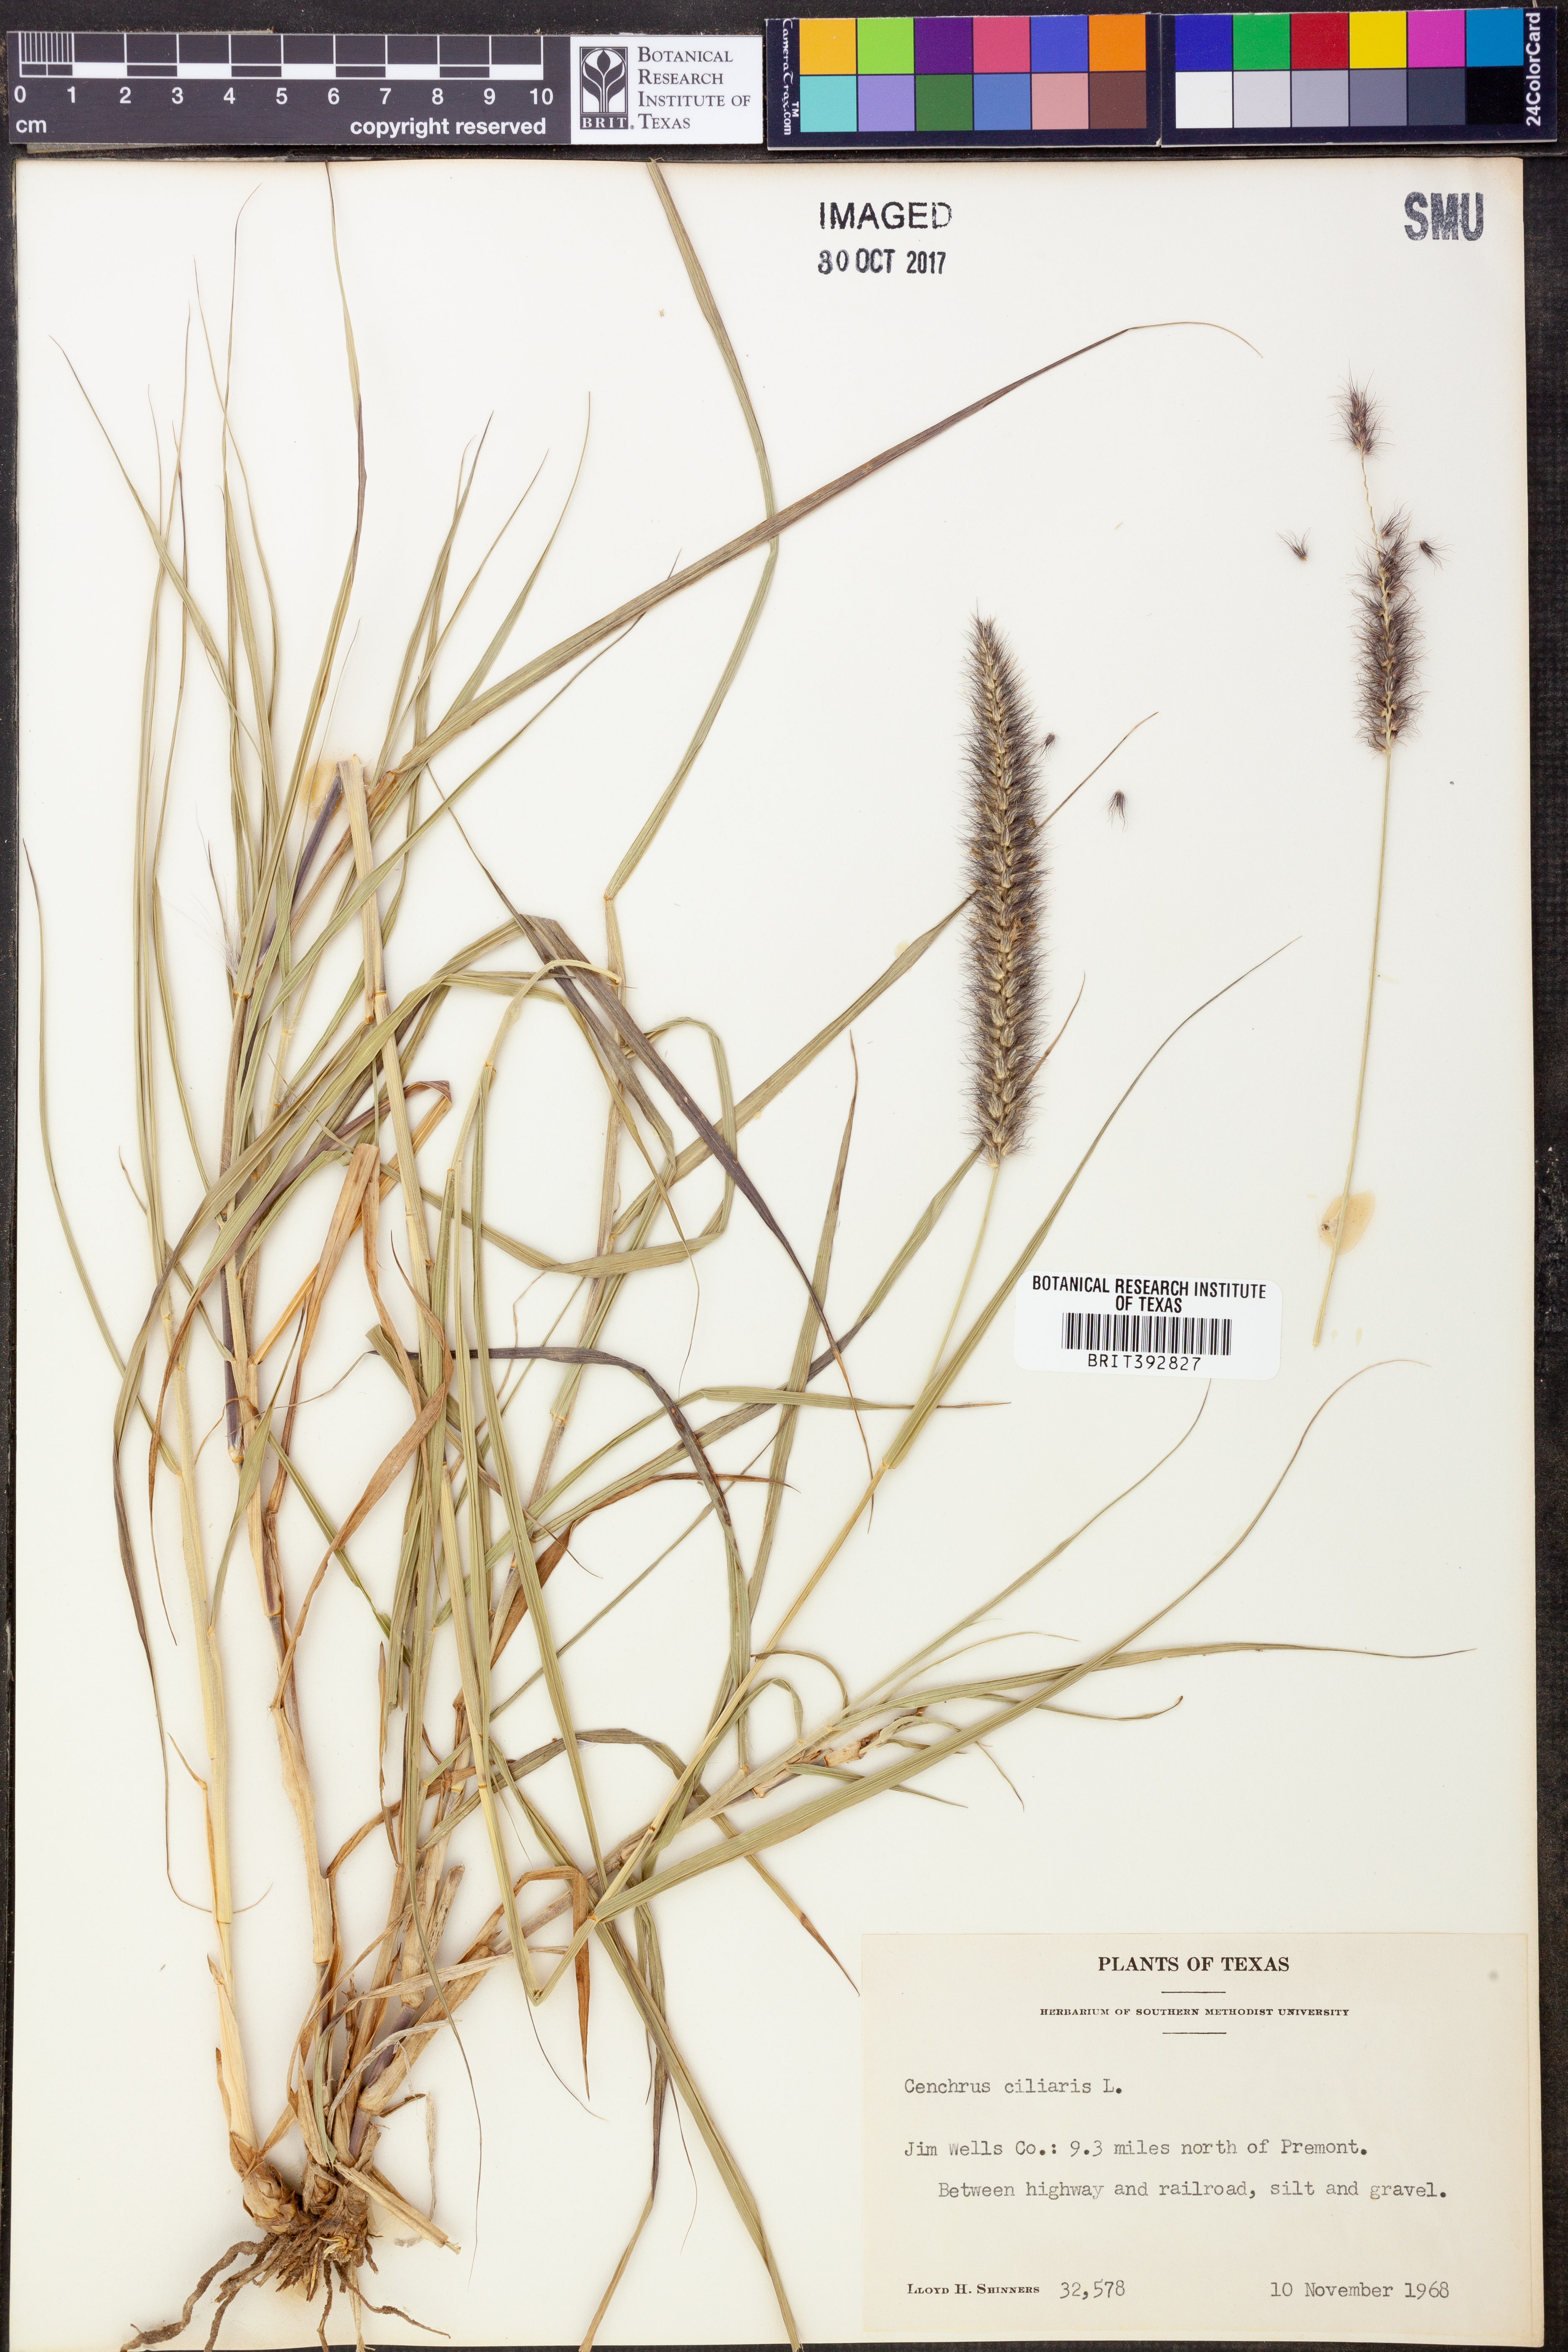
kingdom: Plantae
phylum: Tracheophyta
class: Liliopsida
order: Poales
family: Poaceae
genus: Cenchrus
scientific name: Cenchrus ciliaris
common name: Buffelgrass
